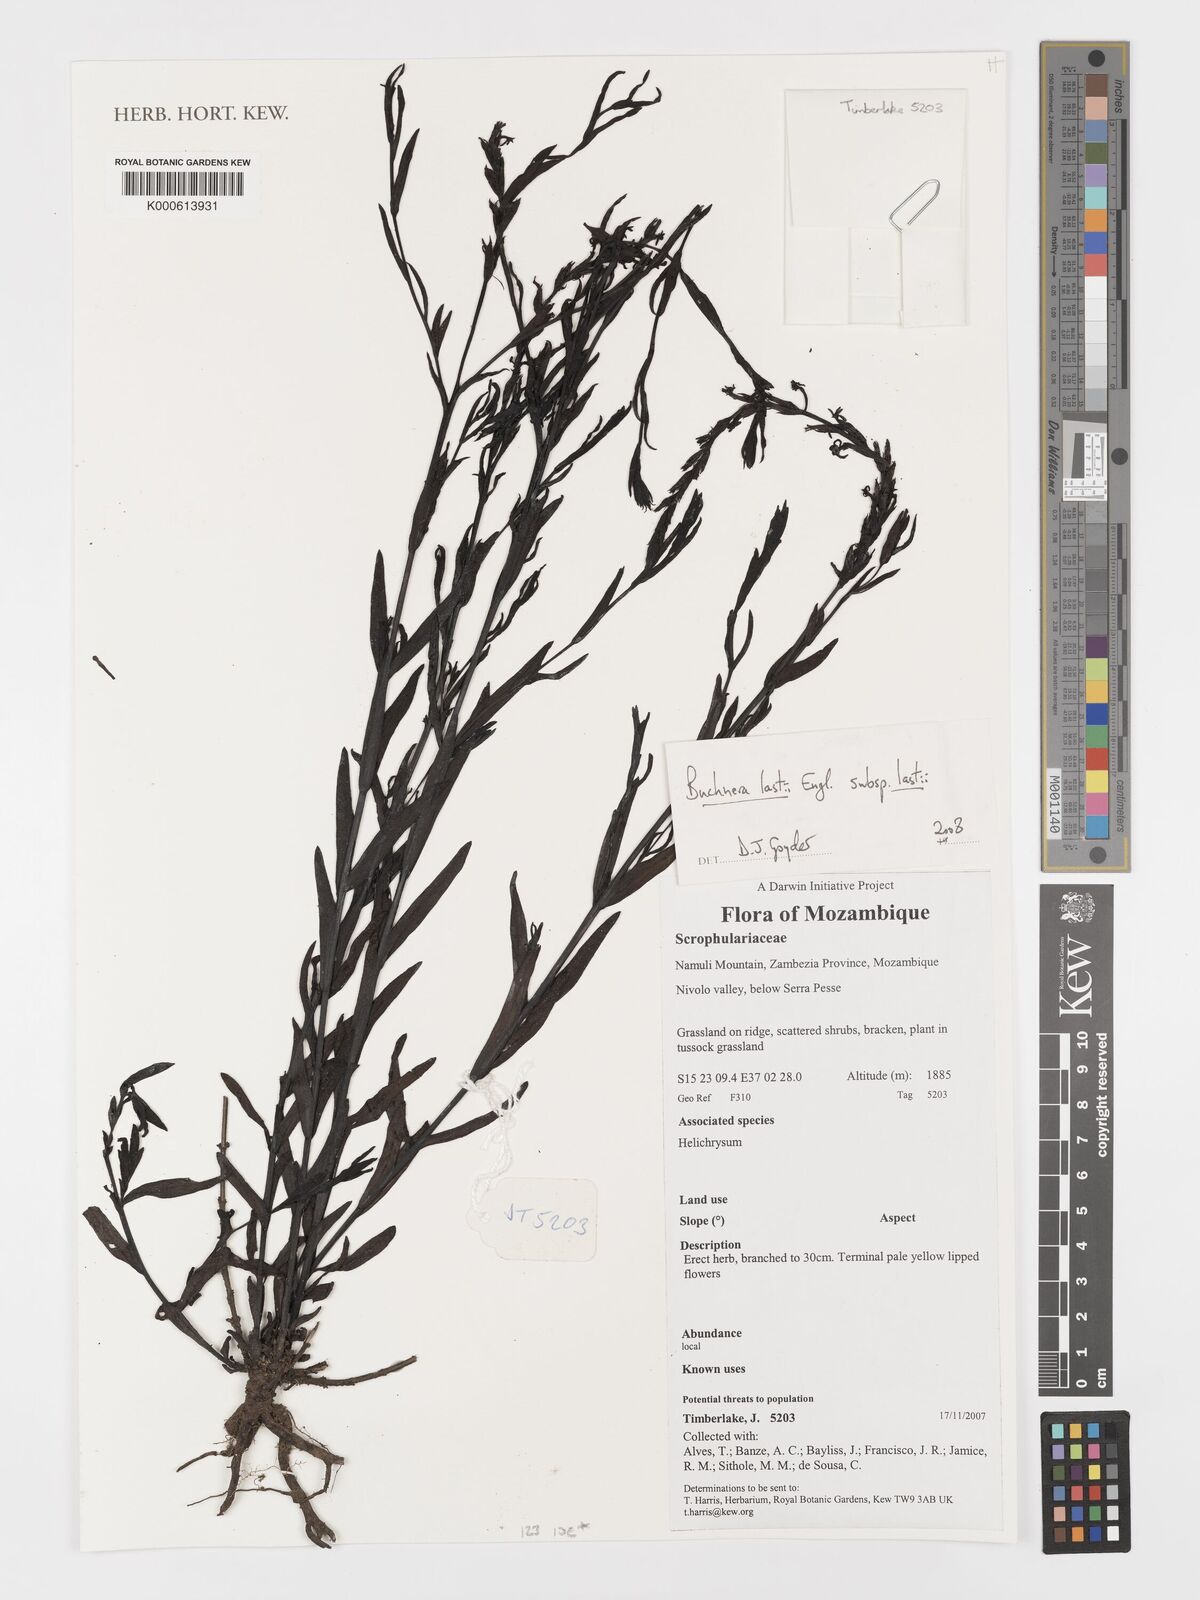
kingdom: Plantae
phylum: Tracheophyta
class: Magnoliopsida
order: Lamiales
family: Orobanchaceae
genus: Buchnera
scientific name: Buchnera lastii
